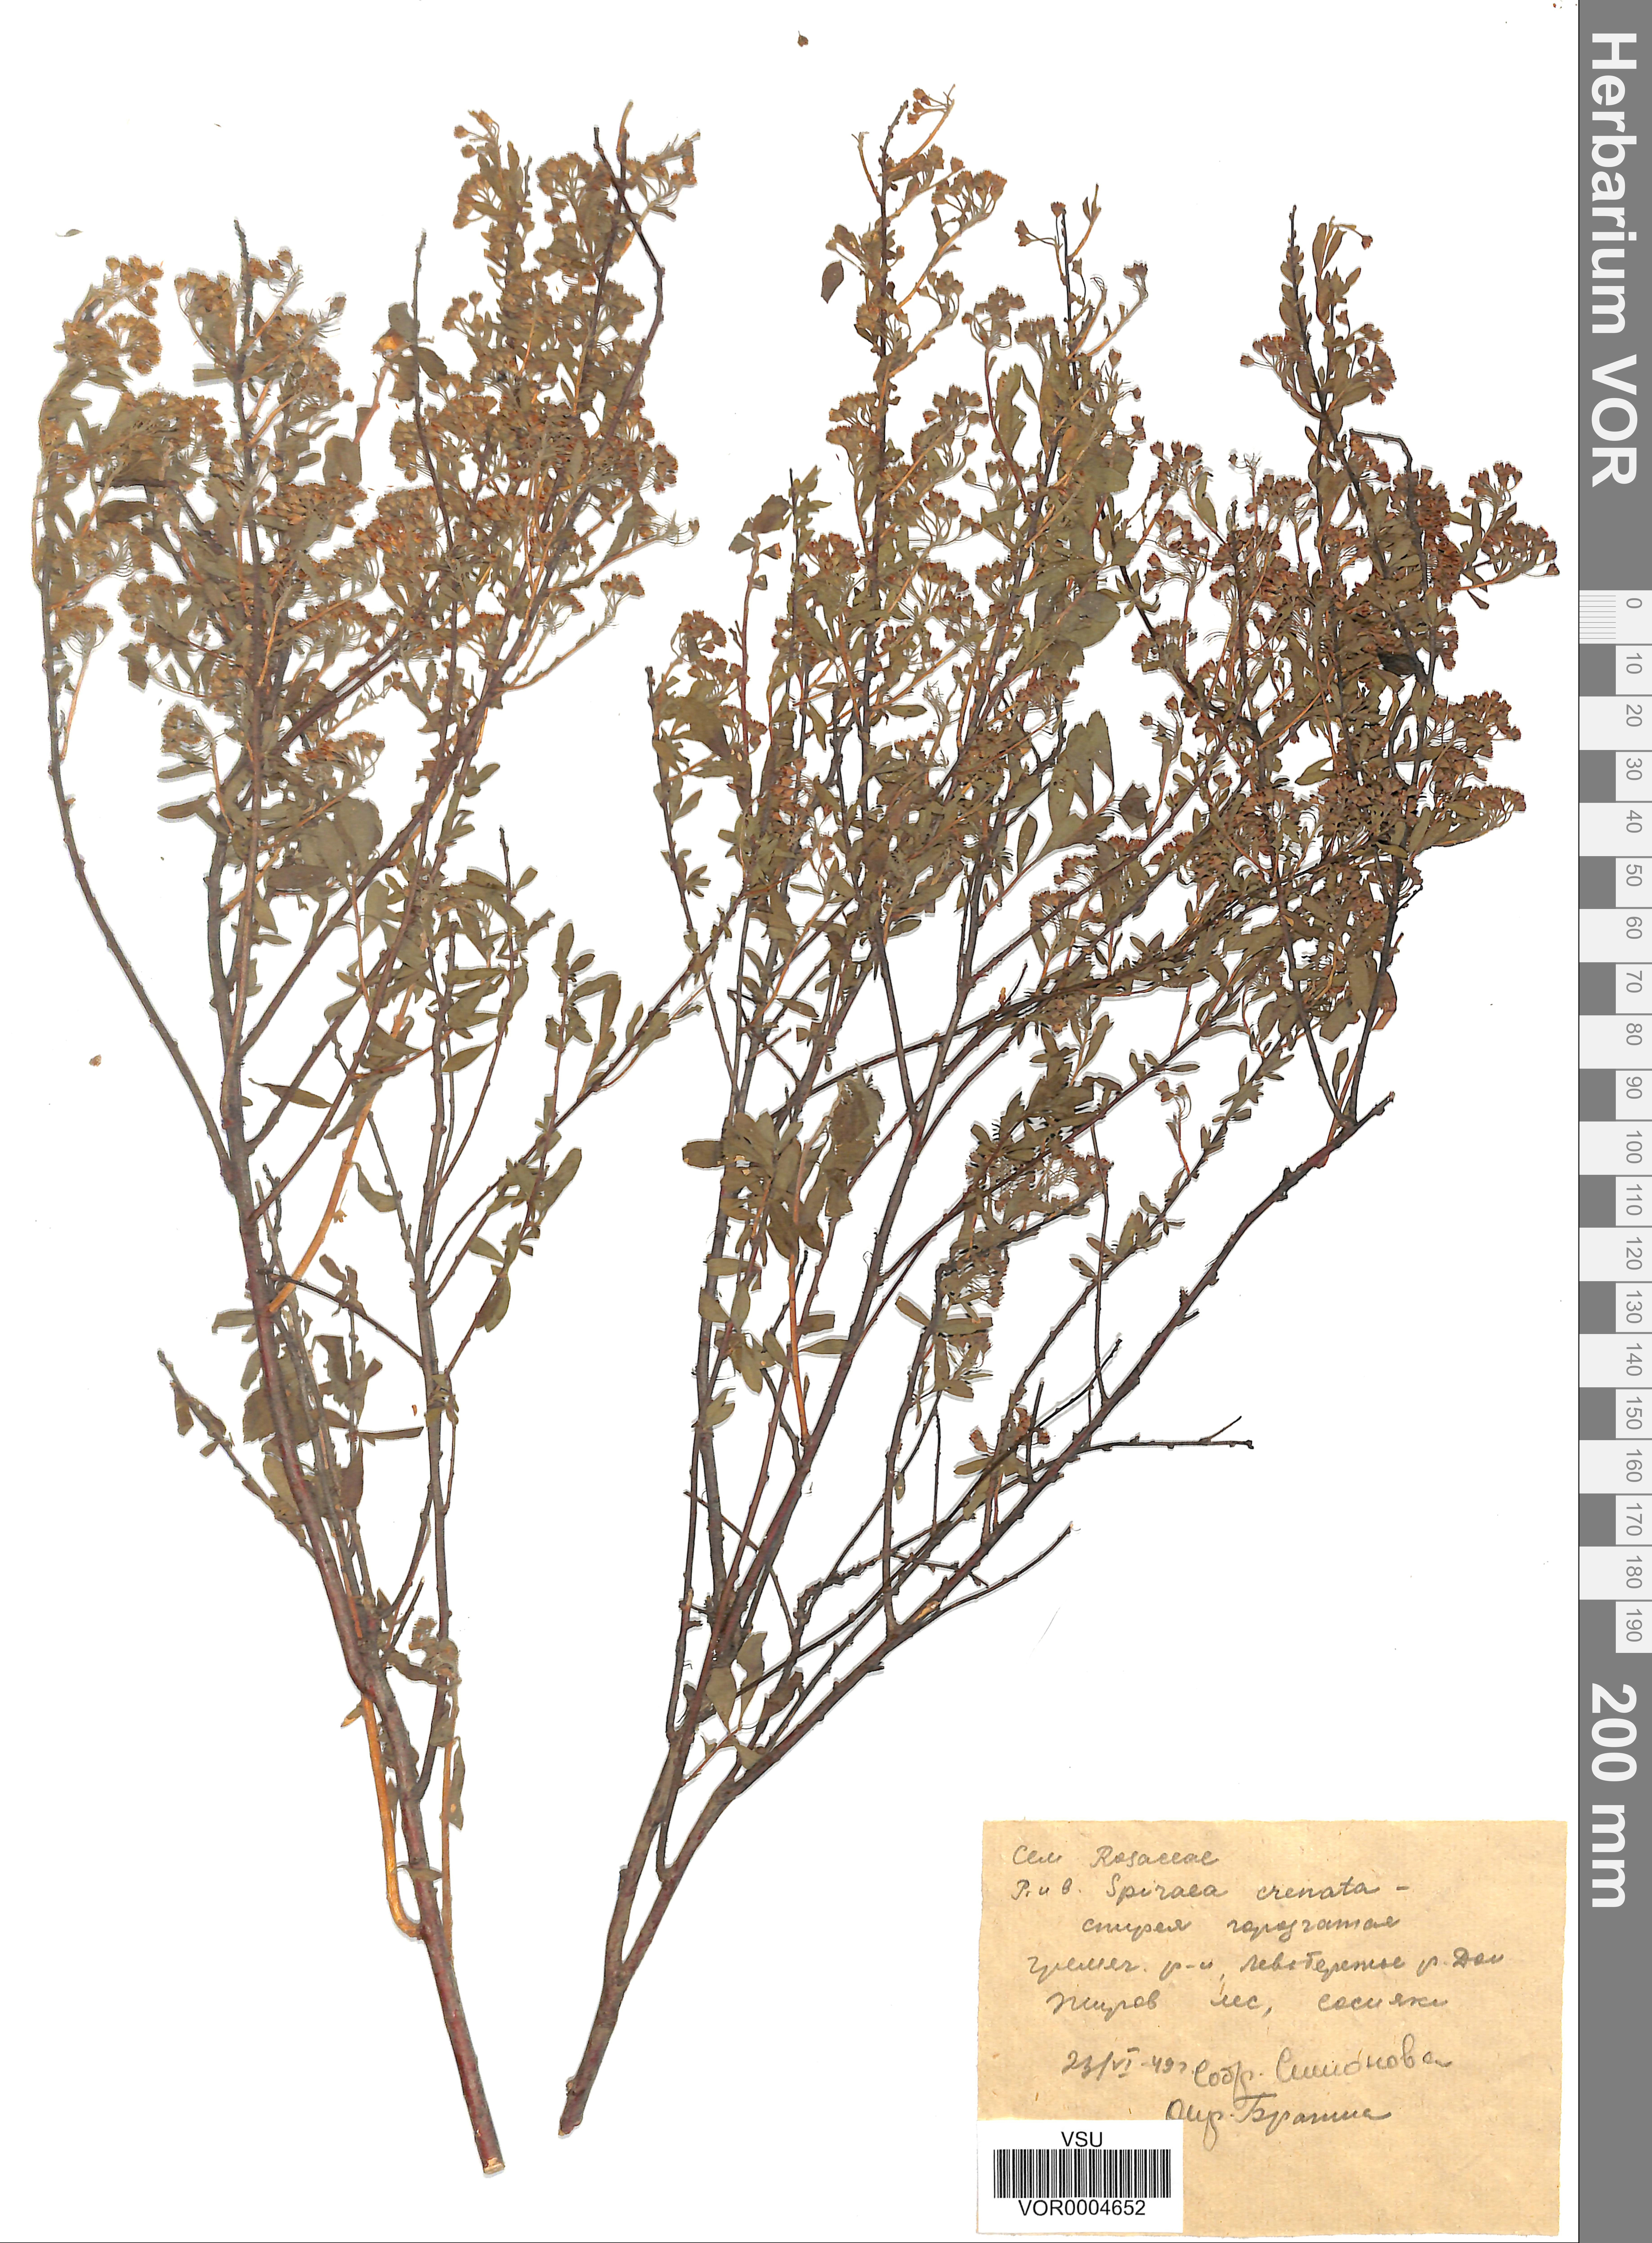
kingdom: Plantae
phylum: Tracheophyta
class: Magnoliopsida
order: Rosales
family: Rosaceae
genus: Spiraea
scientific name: Spiraea crenata
